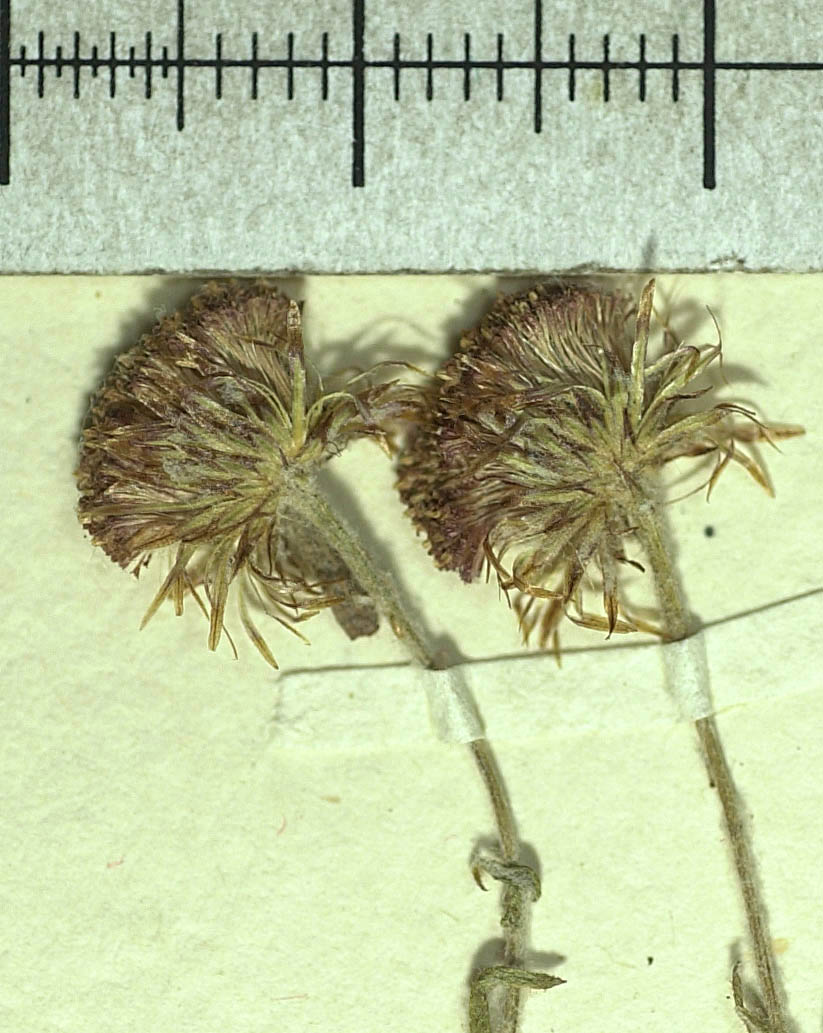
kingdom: Plantae
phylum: Tracheophyta
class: Magnoliopsida
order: Asterales
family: Asteraceae
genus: Phagnalon
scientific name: Phagnalon persicum
